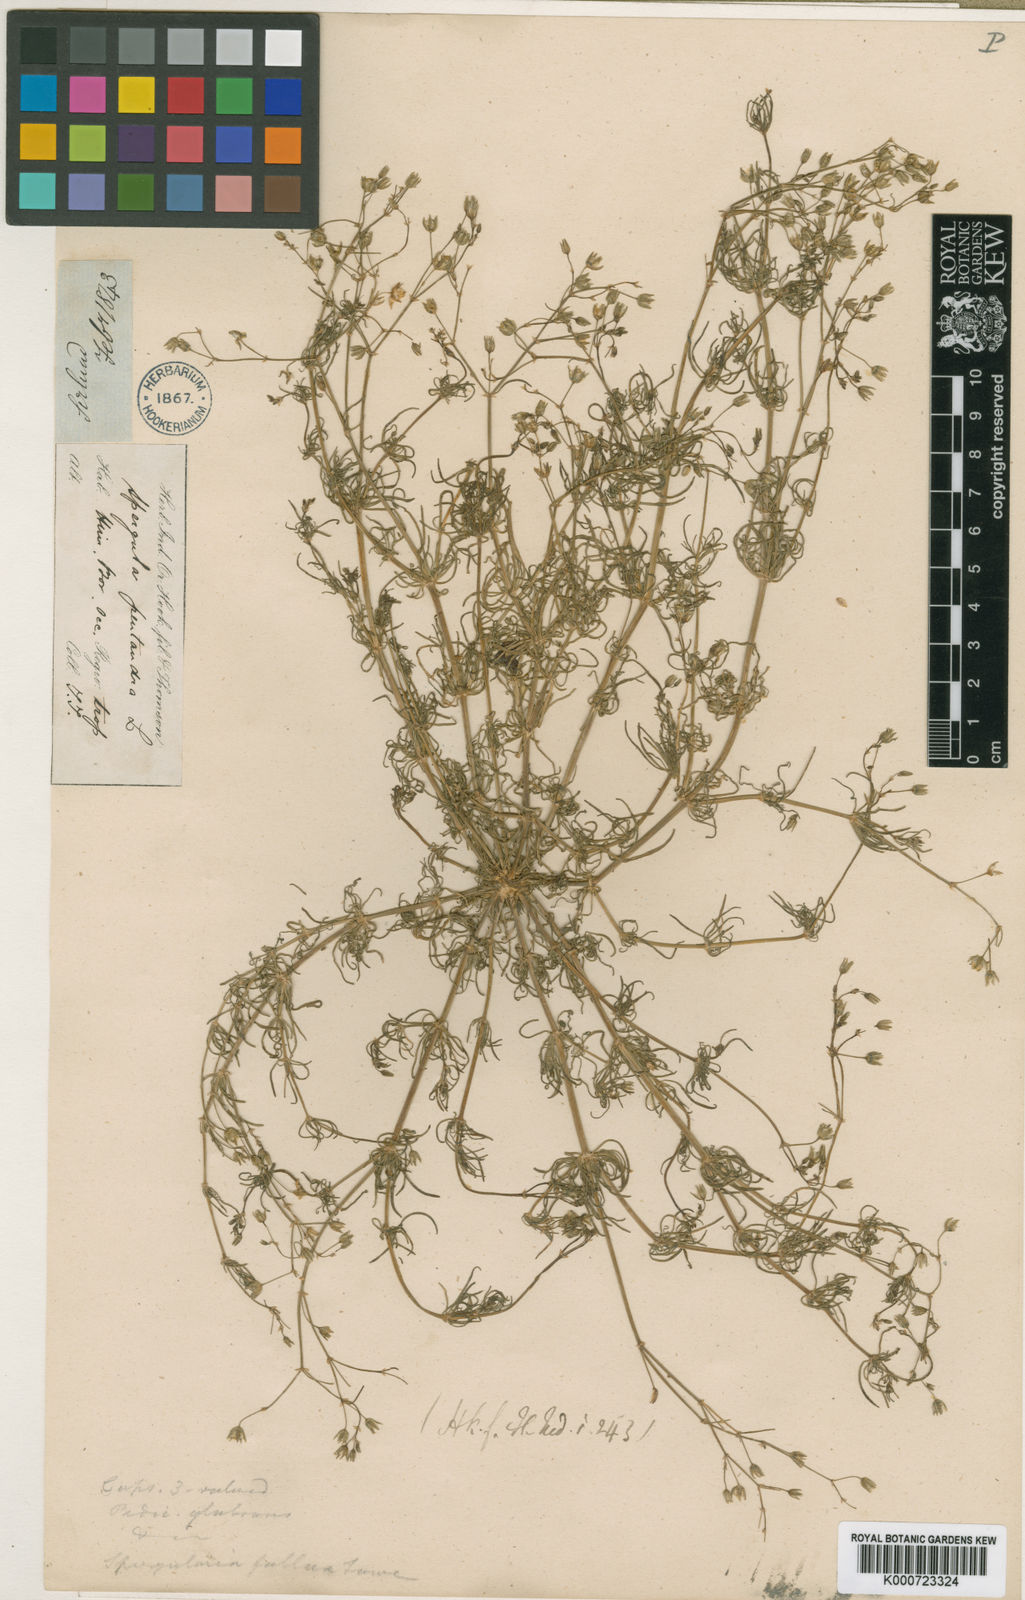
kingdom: Plantae
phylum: Tracheophyta
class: Magnoliopsida
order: Caryophyllales
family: Caryophyllaceae
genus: Spergularia
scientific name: Spergularia flaccida
